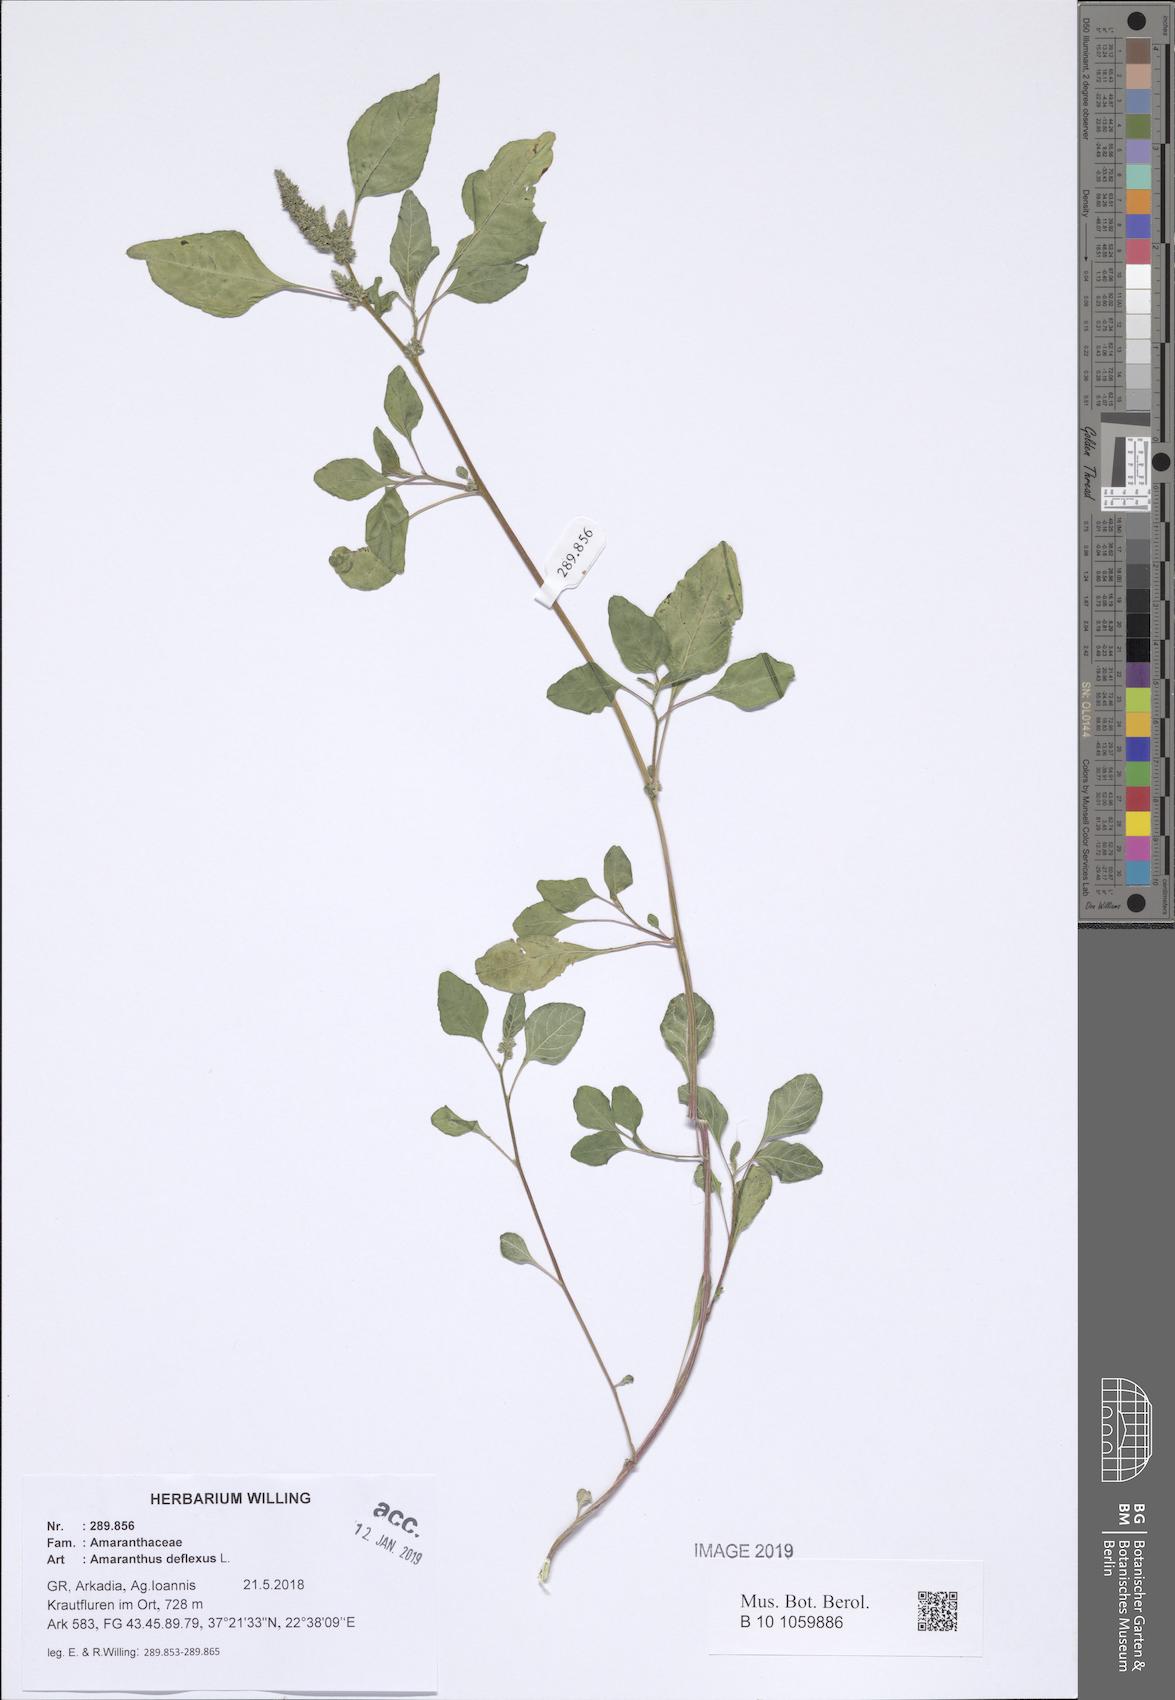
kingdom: Plantae
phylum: Tracheophyta
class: Magnoliopsida
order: Caryophyllales
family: Amaranthaceae
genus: Amaranthus
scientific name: Amaranthus deflexus
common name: Perennial pigweed
